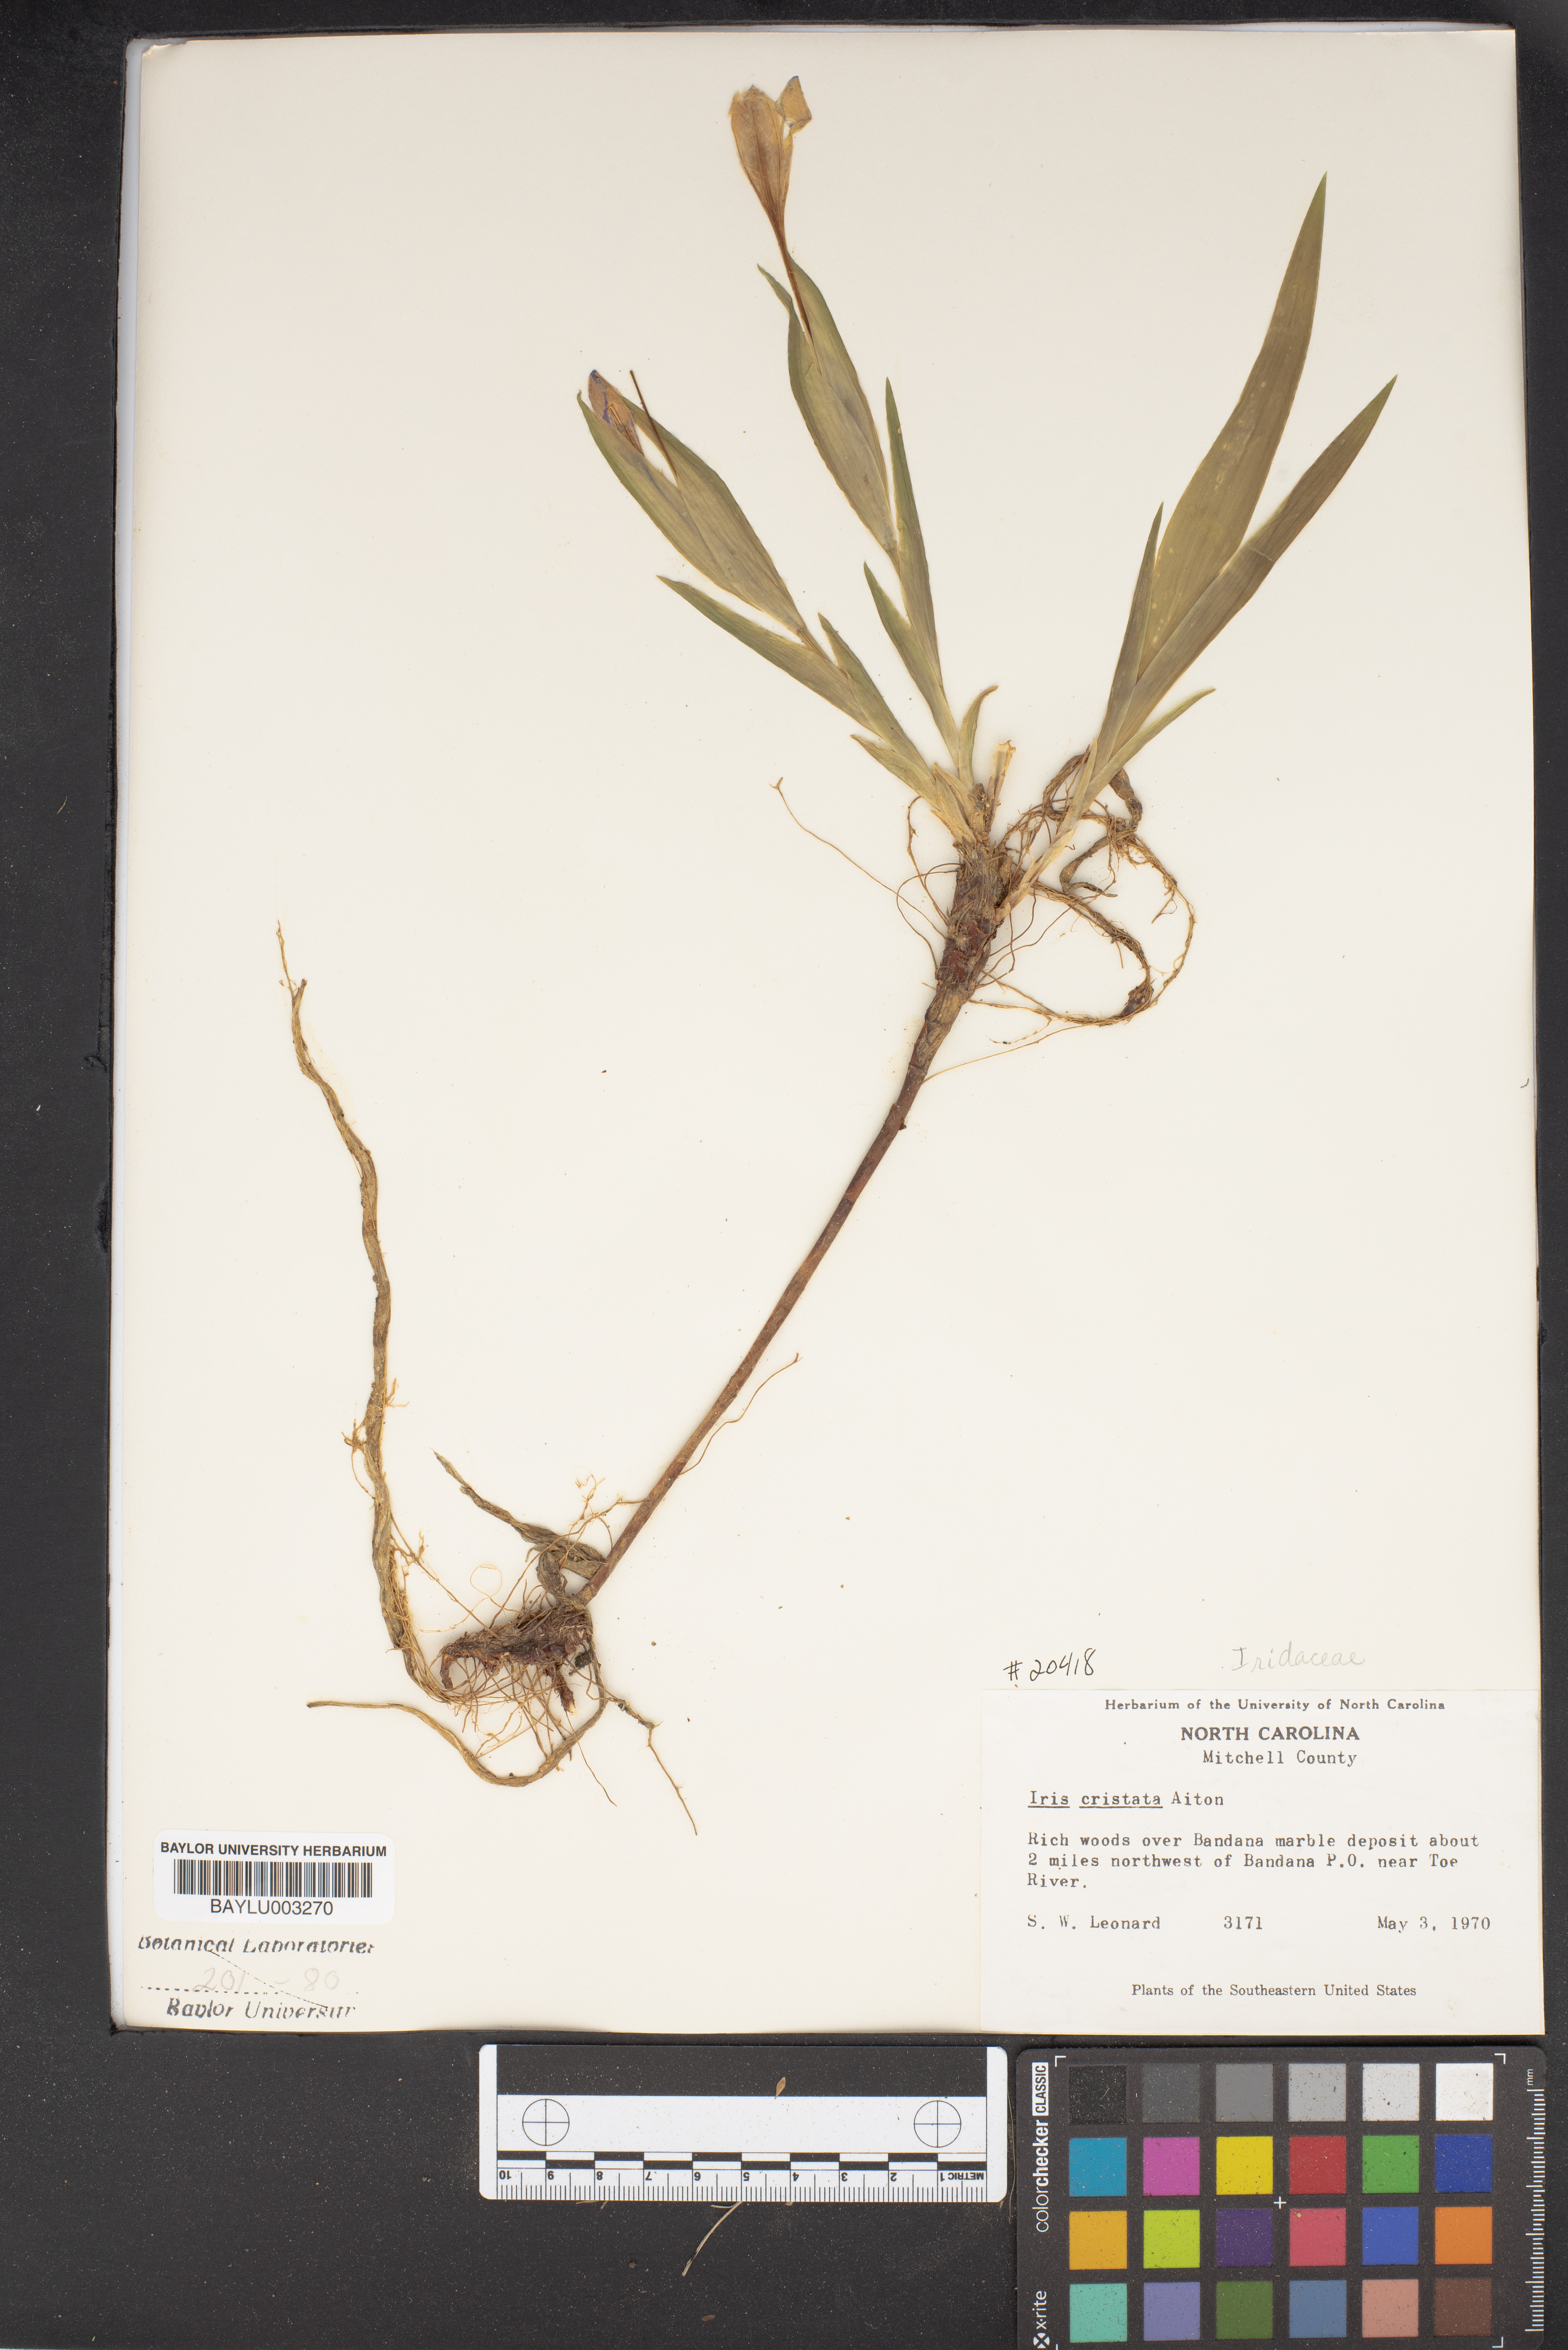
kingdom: Plantae
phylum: Tracheophyta
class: Liliopsida
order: Asparagales
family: Iridaceae
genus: Iris
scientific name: Iris cristata
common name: Crested iris
